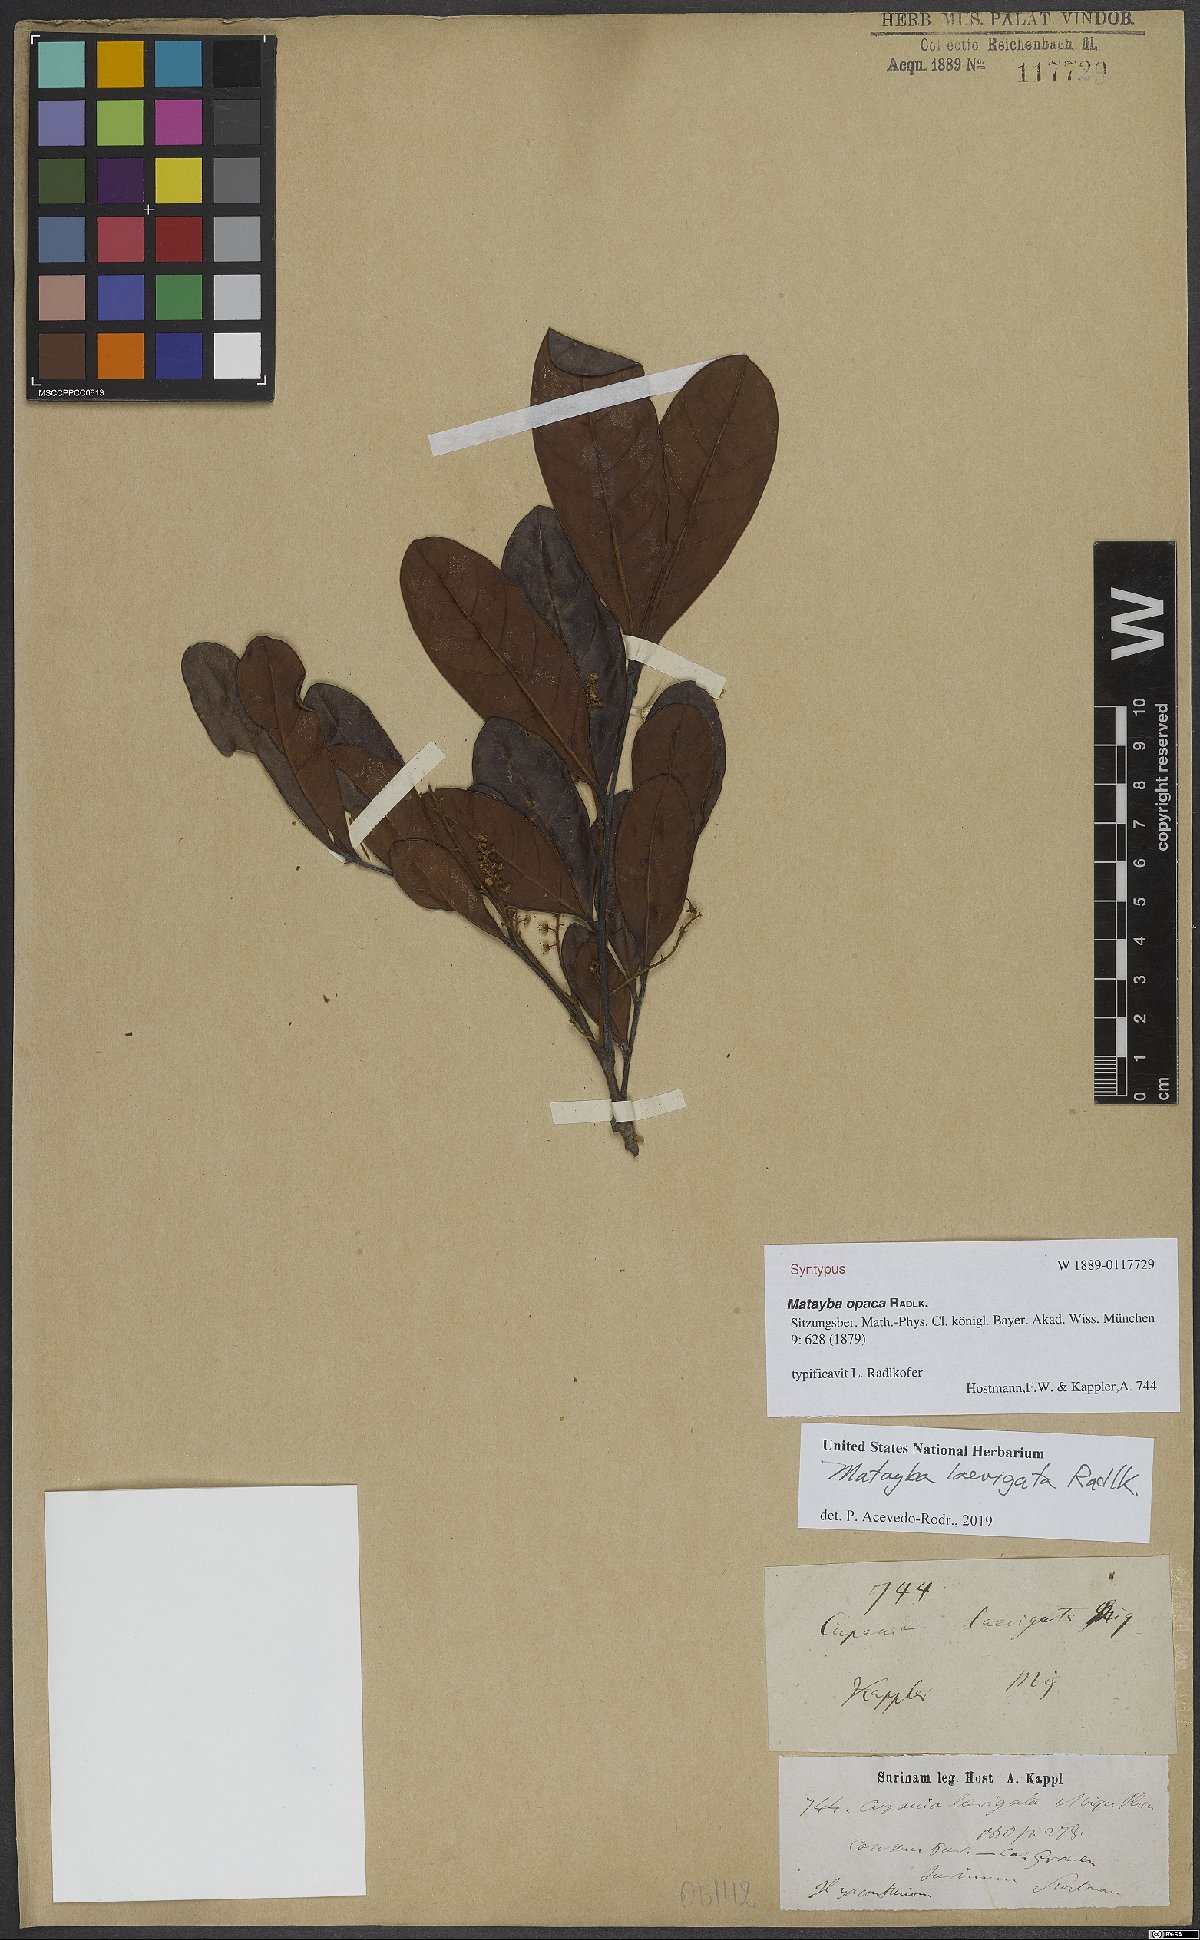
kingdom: Plantae
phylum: Tracheophyta
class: Magnoliopsida
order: Sapindales
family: Sapindaceae
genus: Matayba
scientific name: Matayba laevigata
